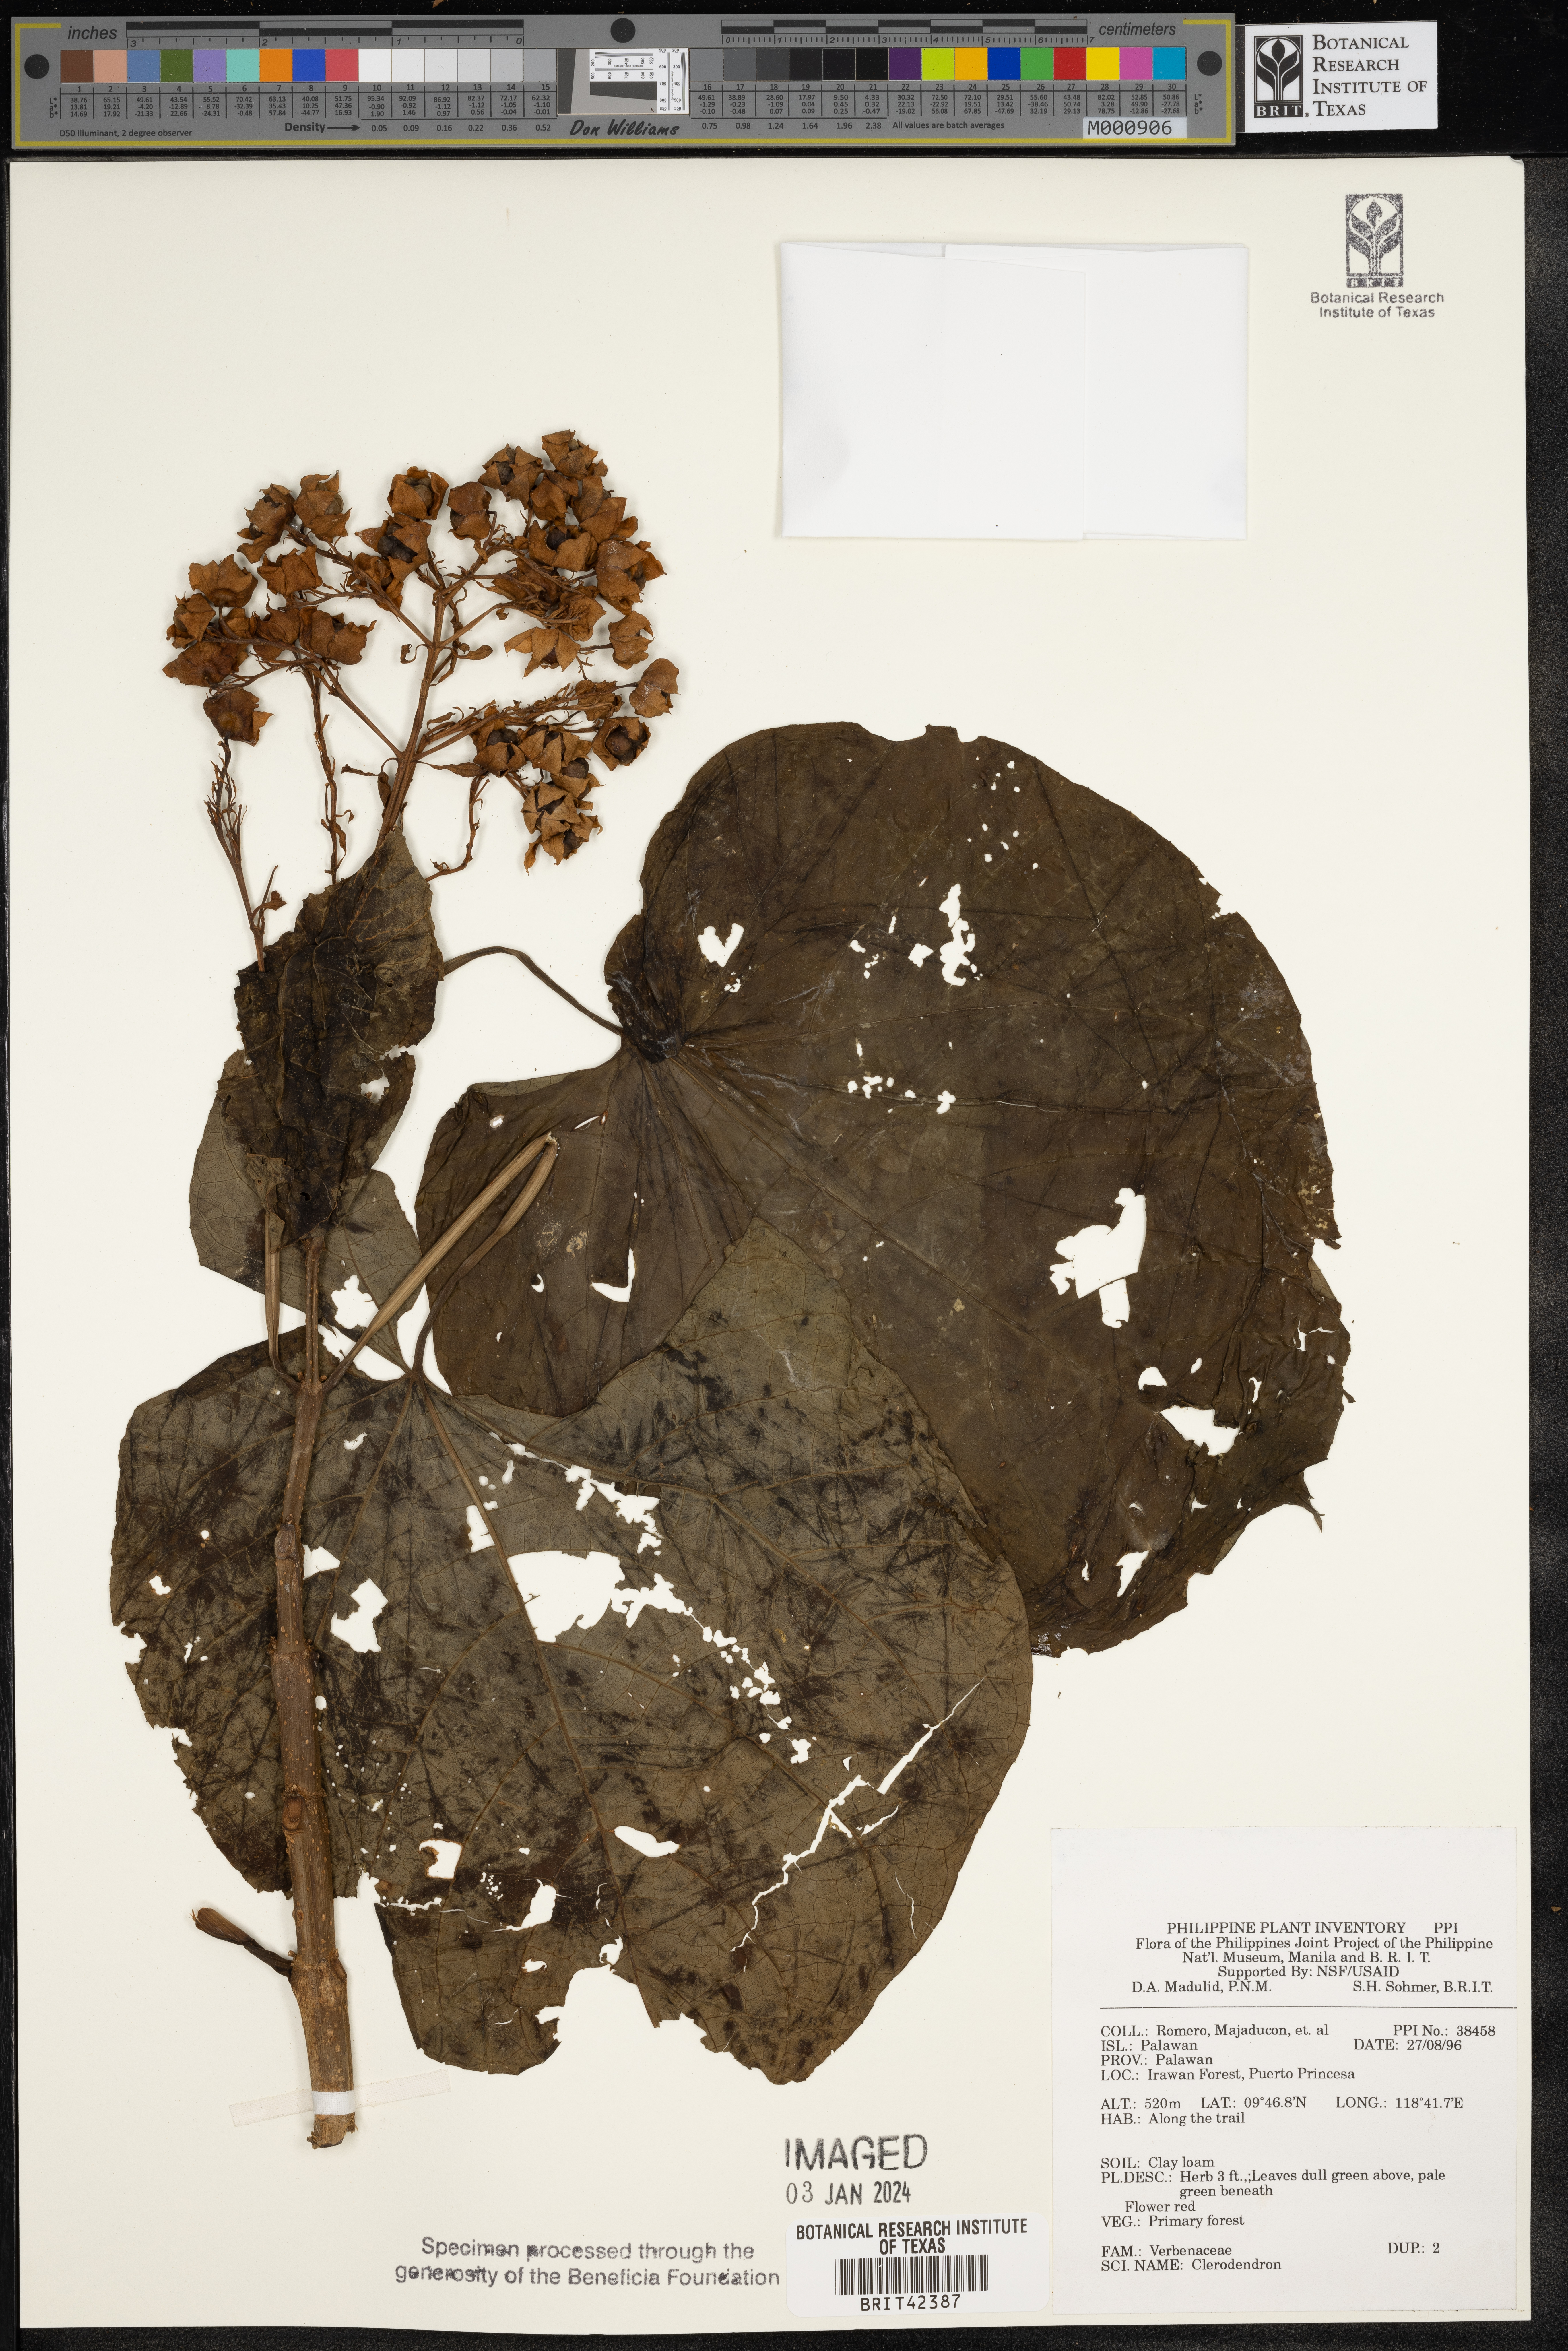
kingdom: Plantae
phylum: Tracheophyta
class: Magnoliopsida
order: Lamiales
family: Lamiaceae
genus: Clerodendrum
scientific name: Clerodendrum
